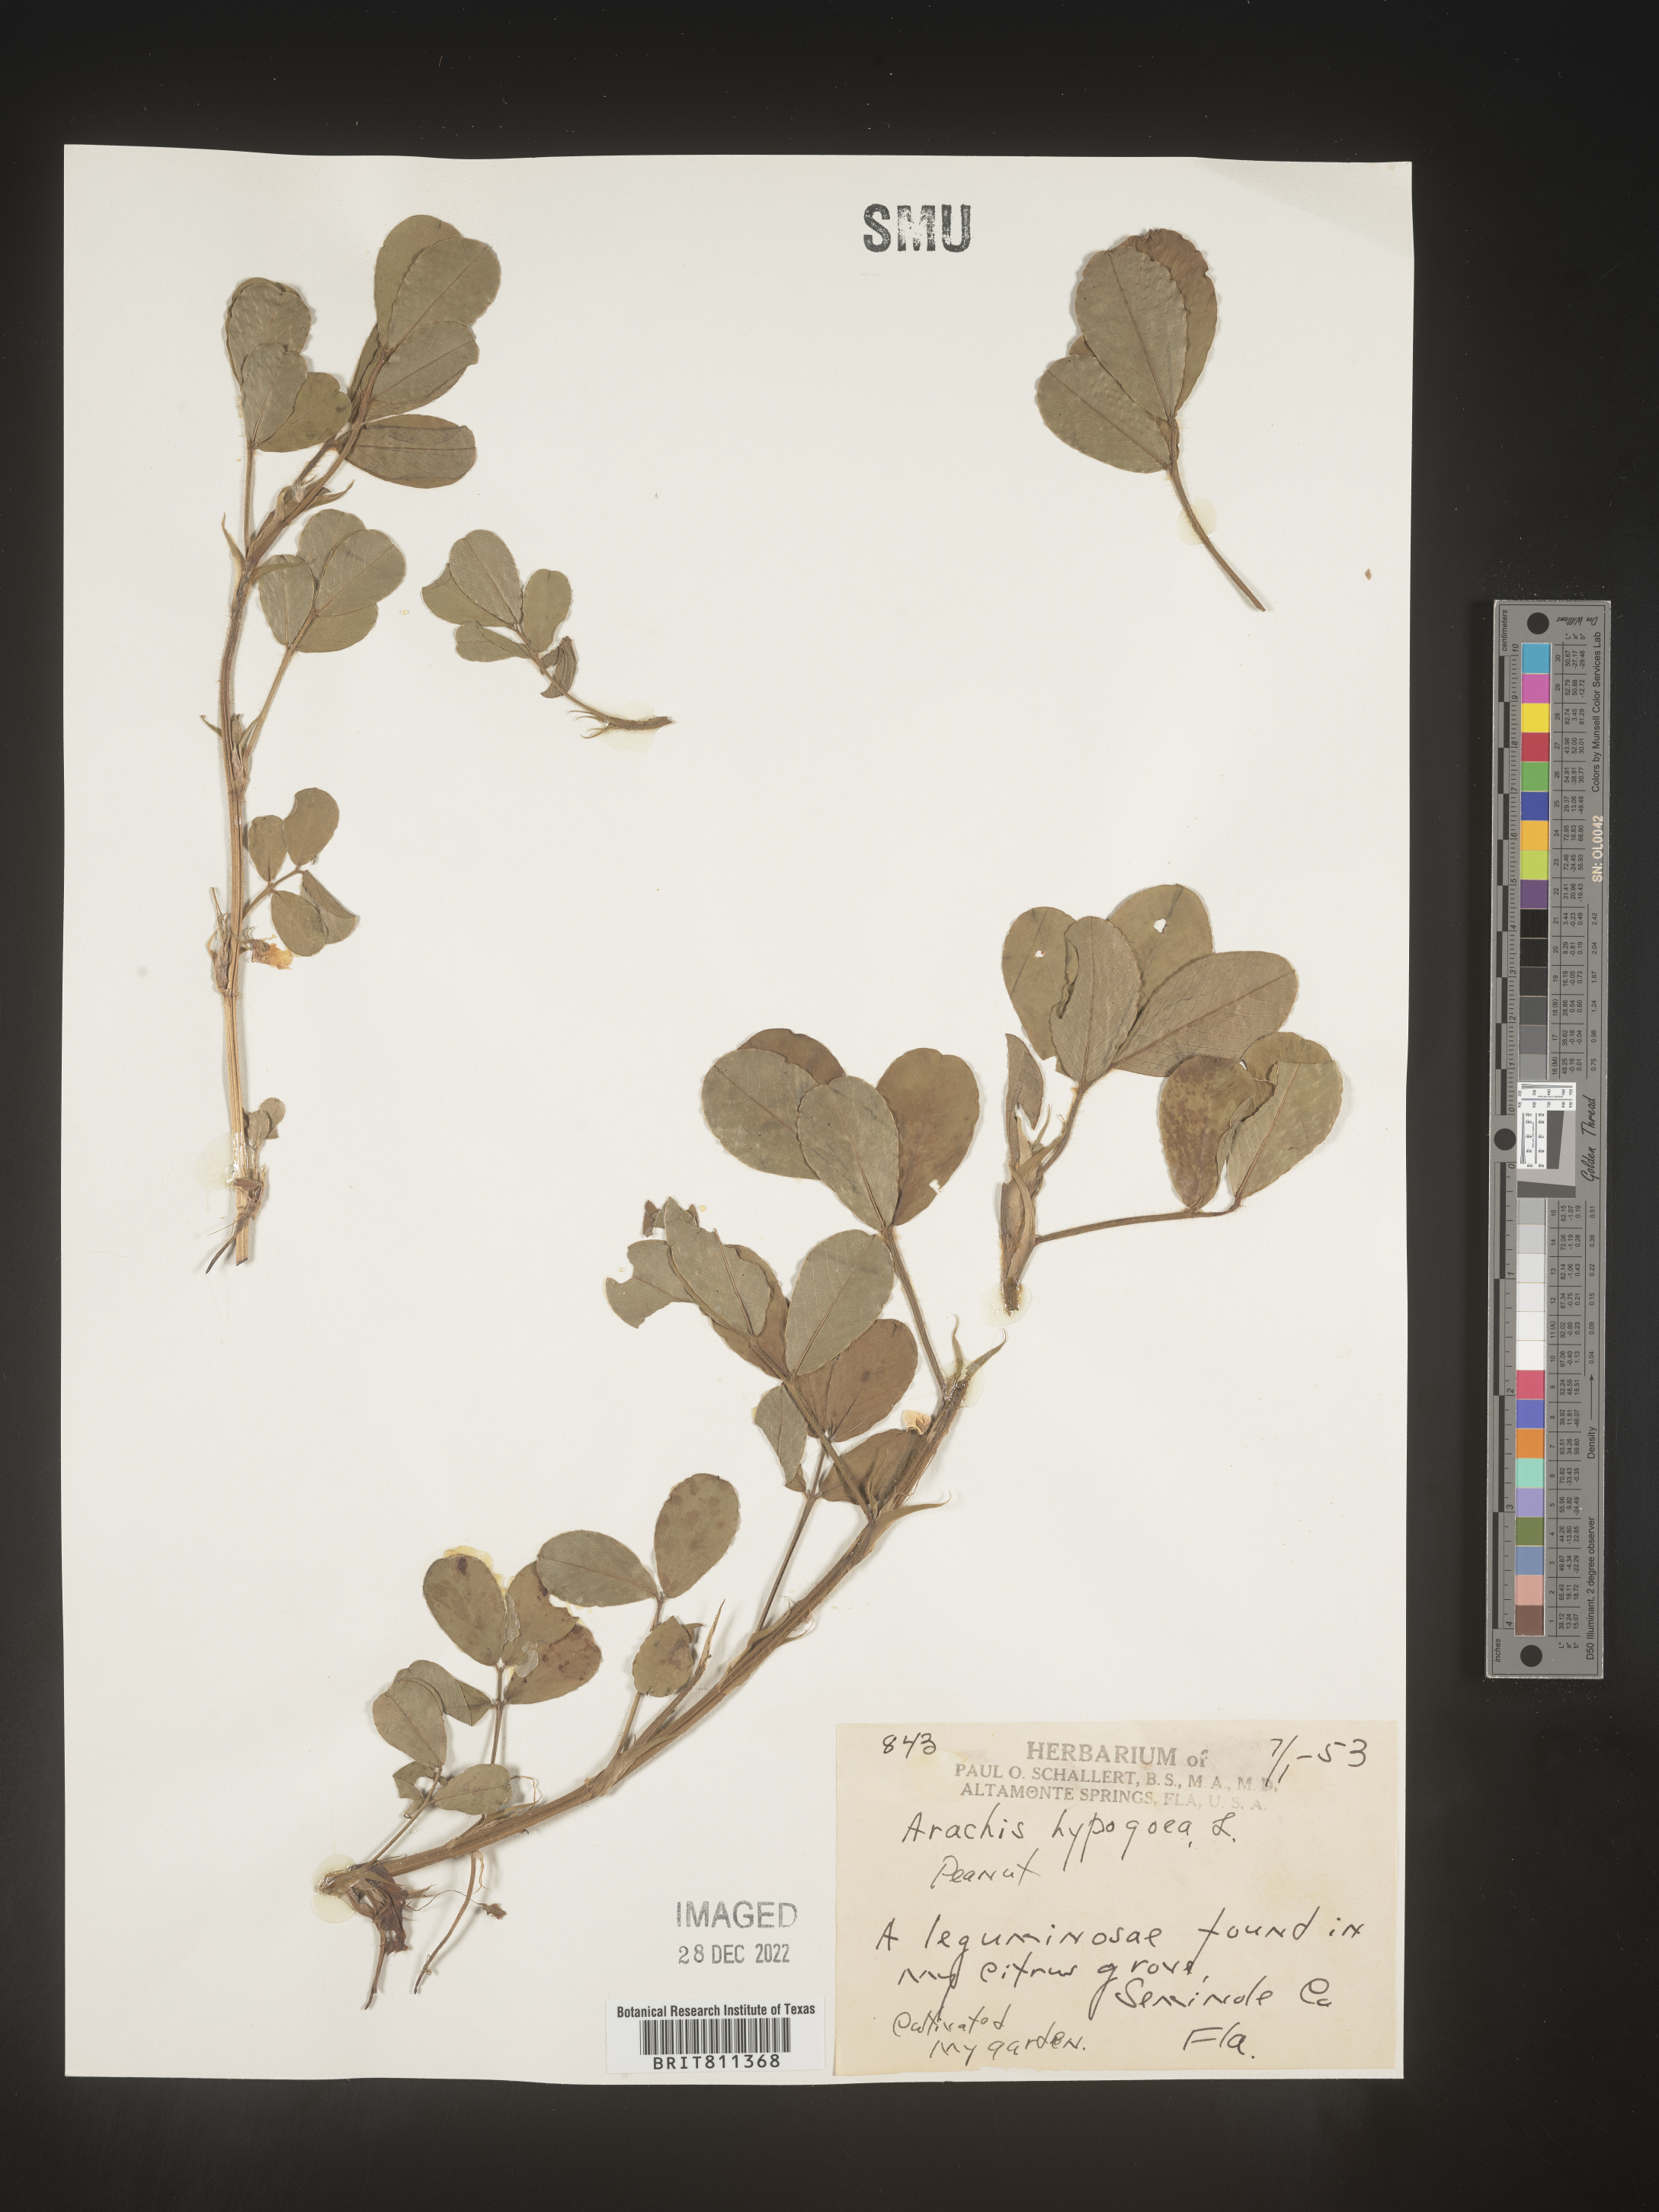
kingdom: Plantae
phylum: Tracheophyta
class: Magnoliopsida
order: Fabales
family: Fabaceae
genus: Arachis
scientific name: Arachis
